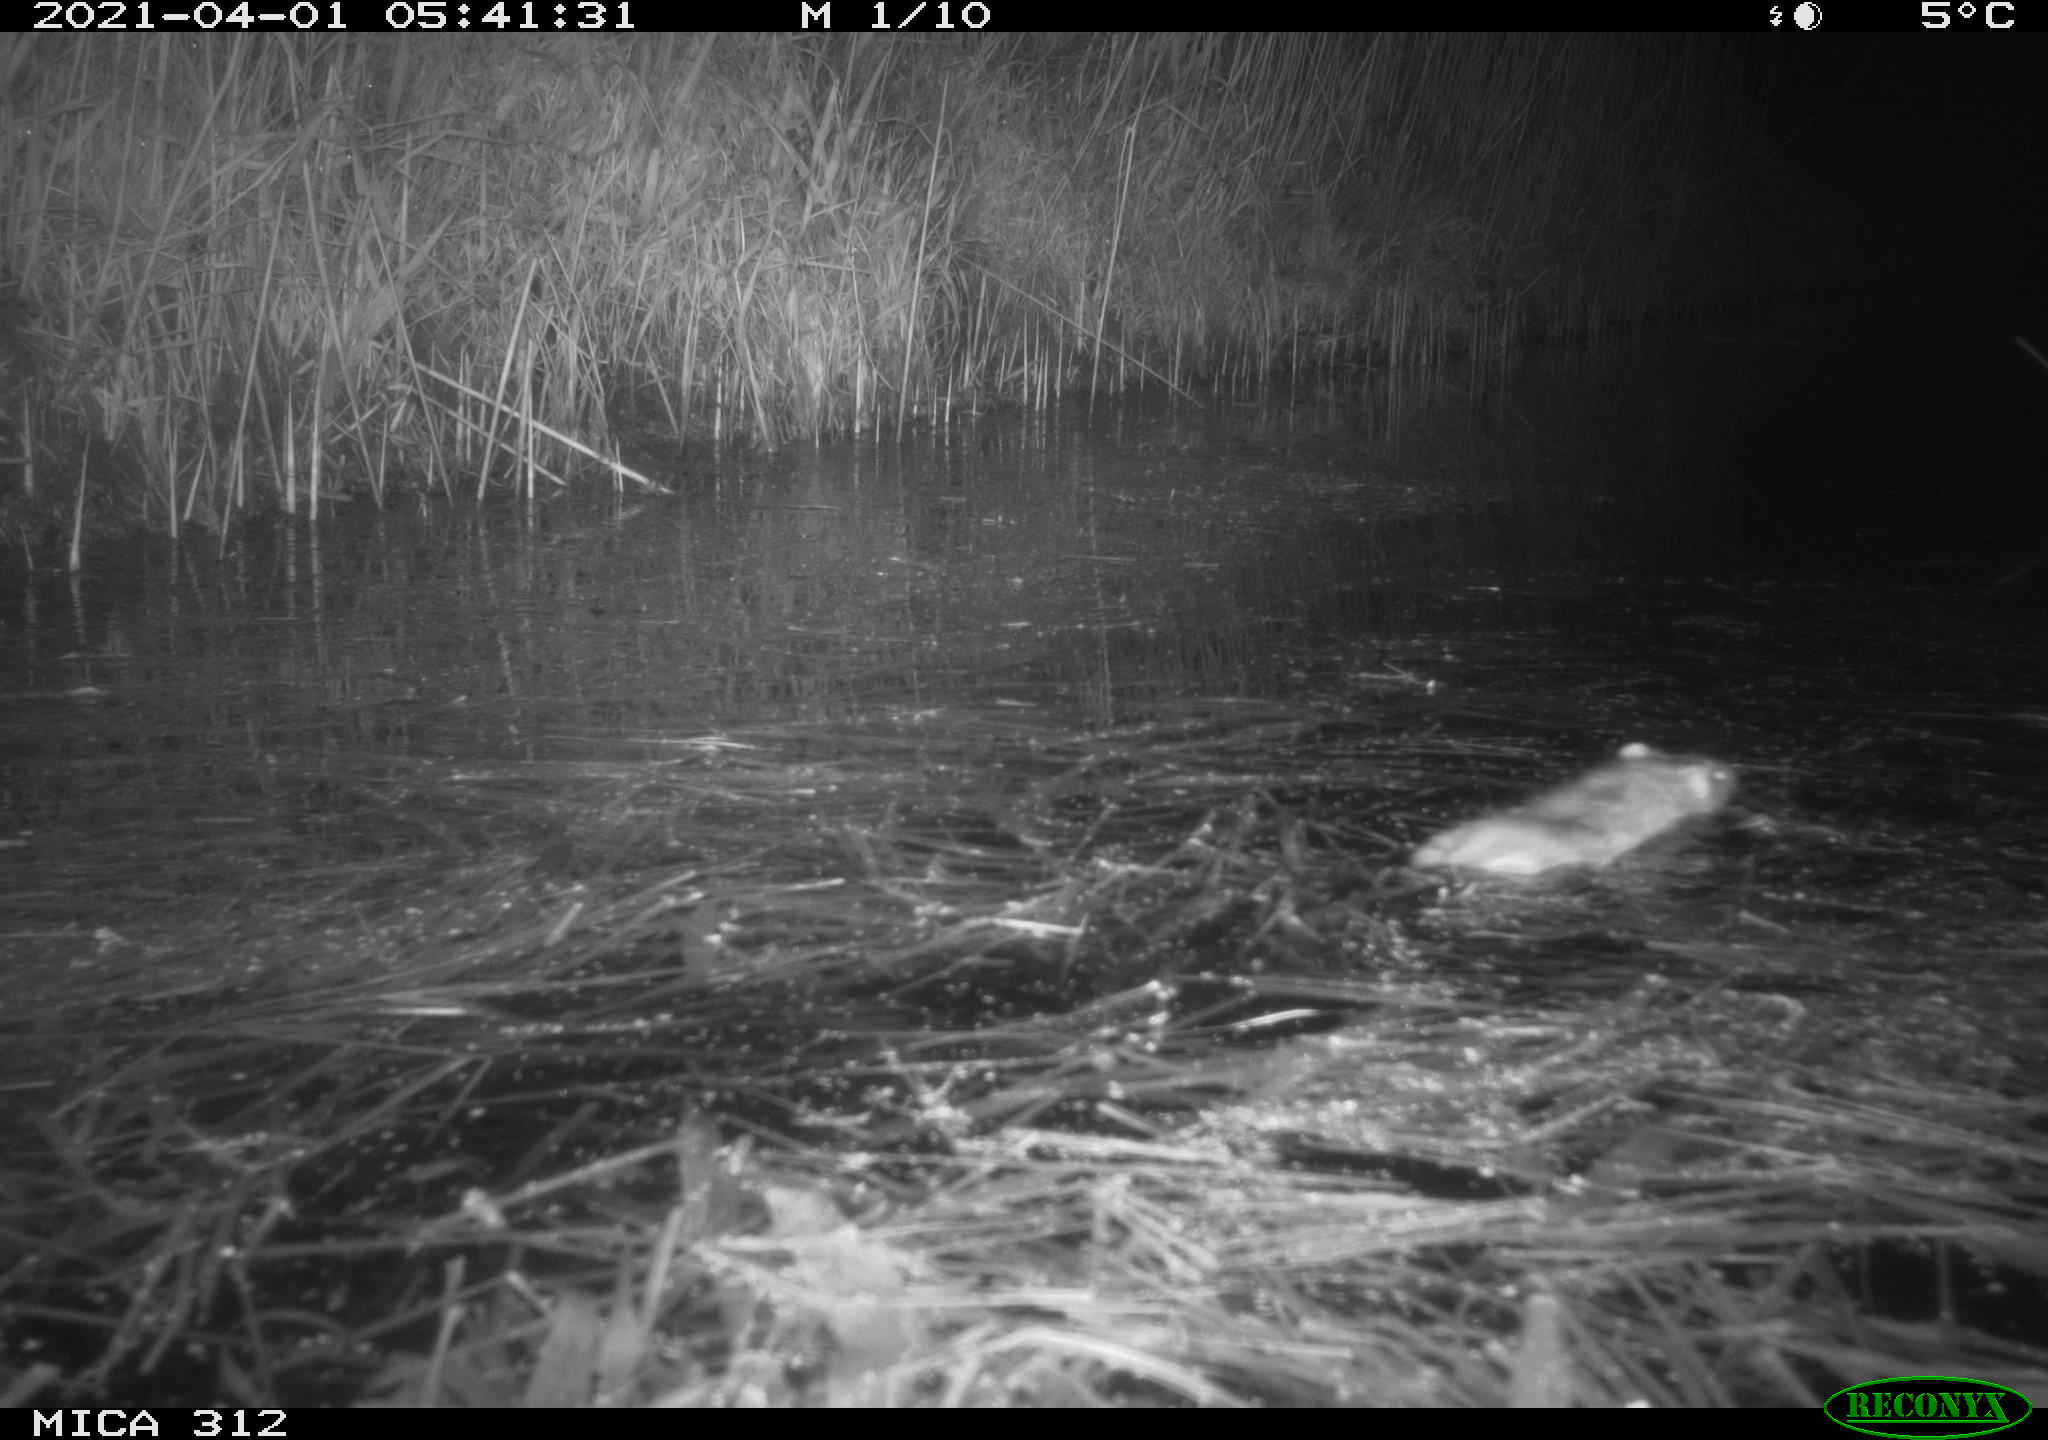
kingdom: Animalia
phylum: Chordata
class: Mammalia
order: Rodentia
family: Muridae
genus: Rattus
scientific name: Rattus norvegicus
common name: Brown rat
